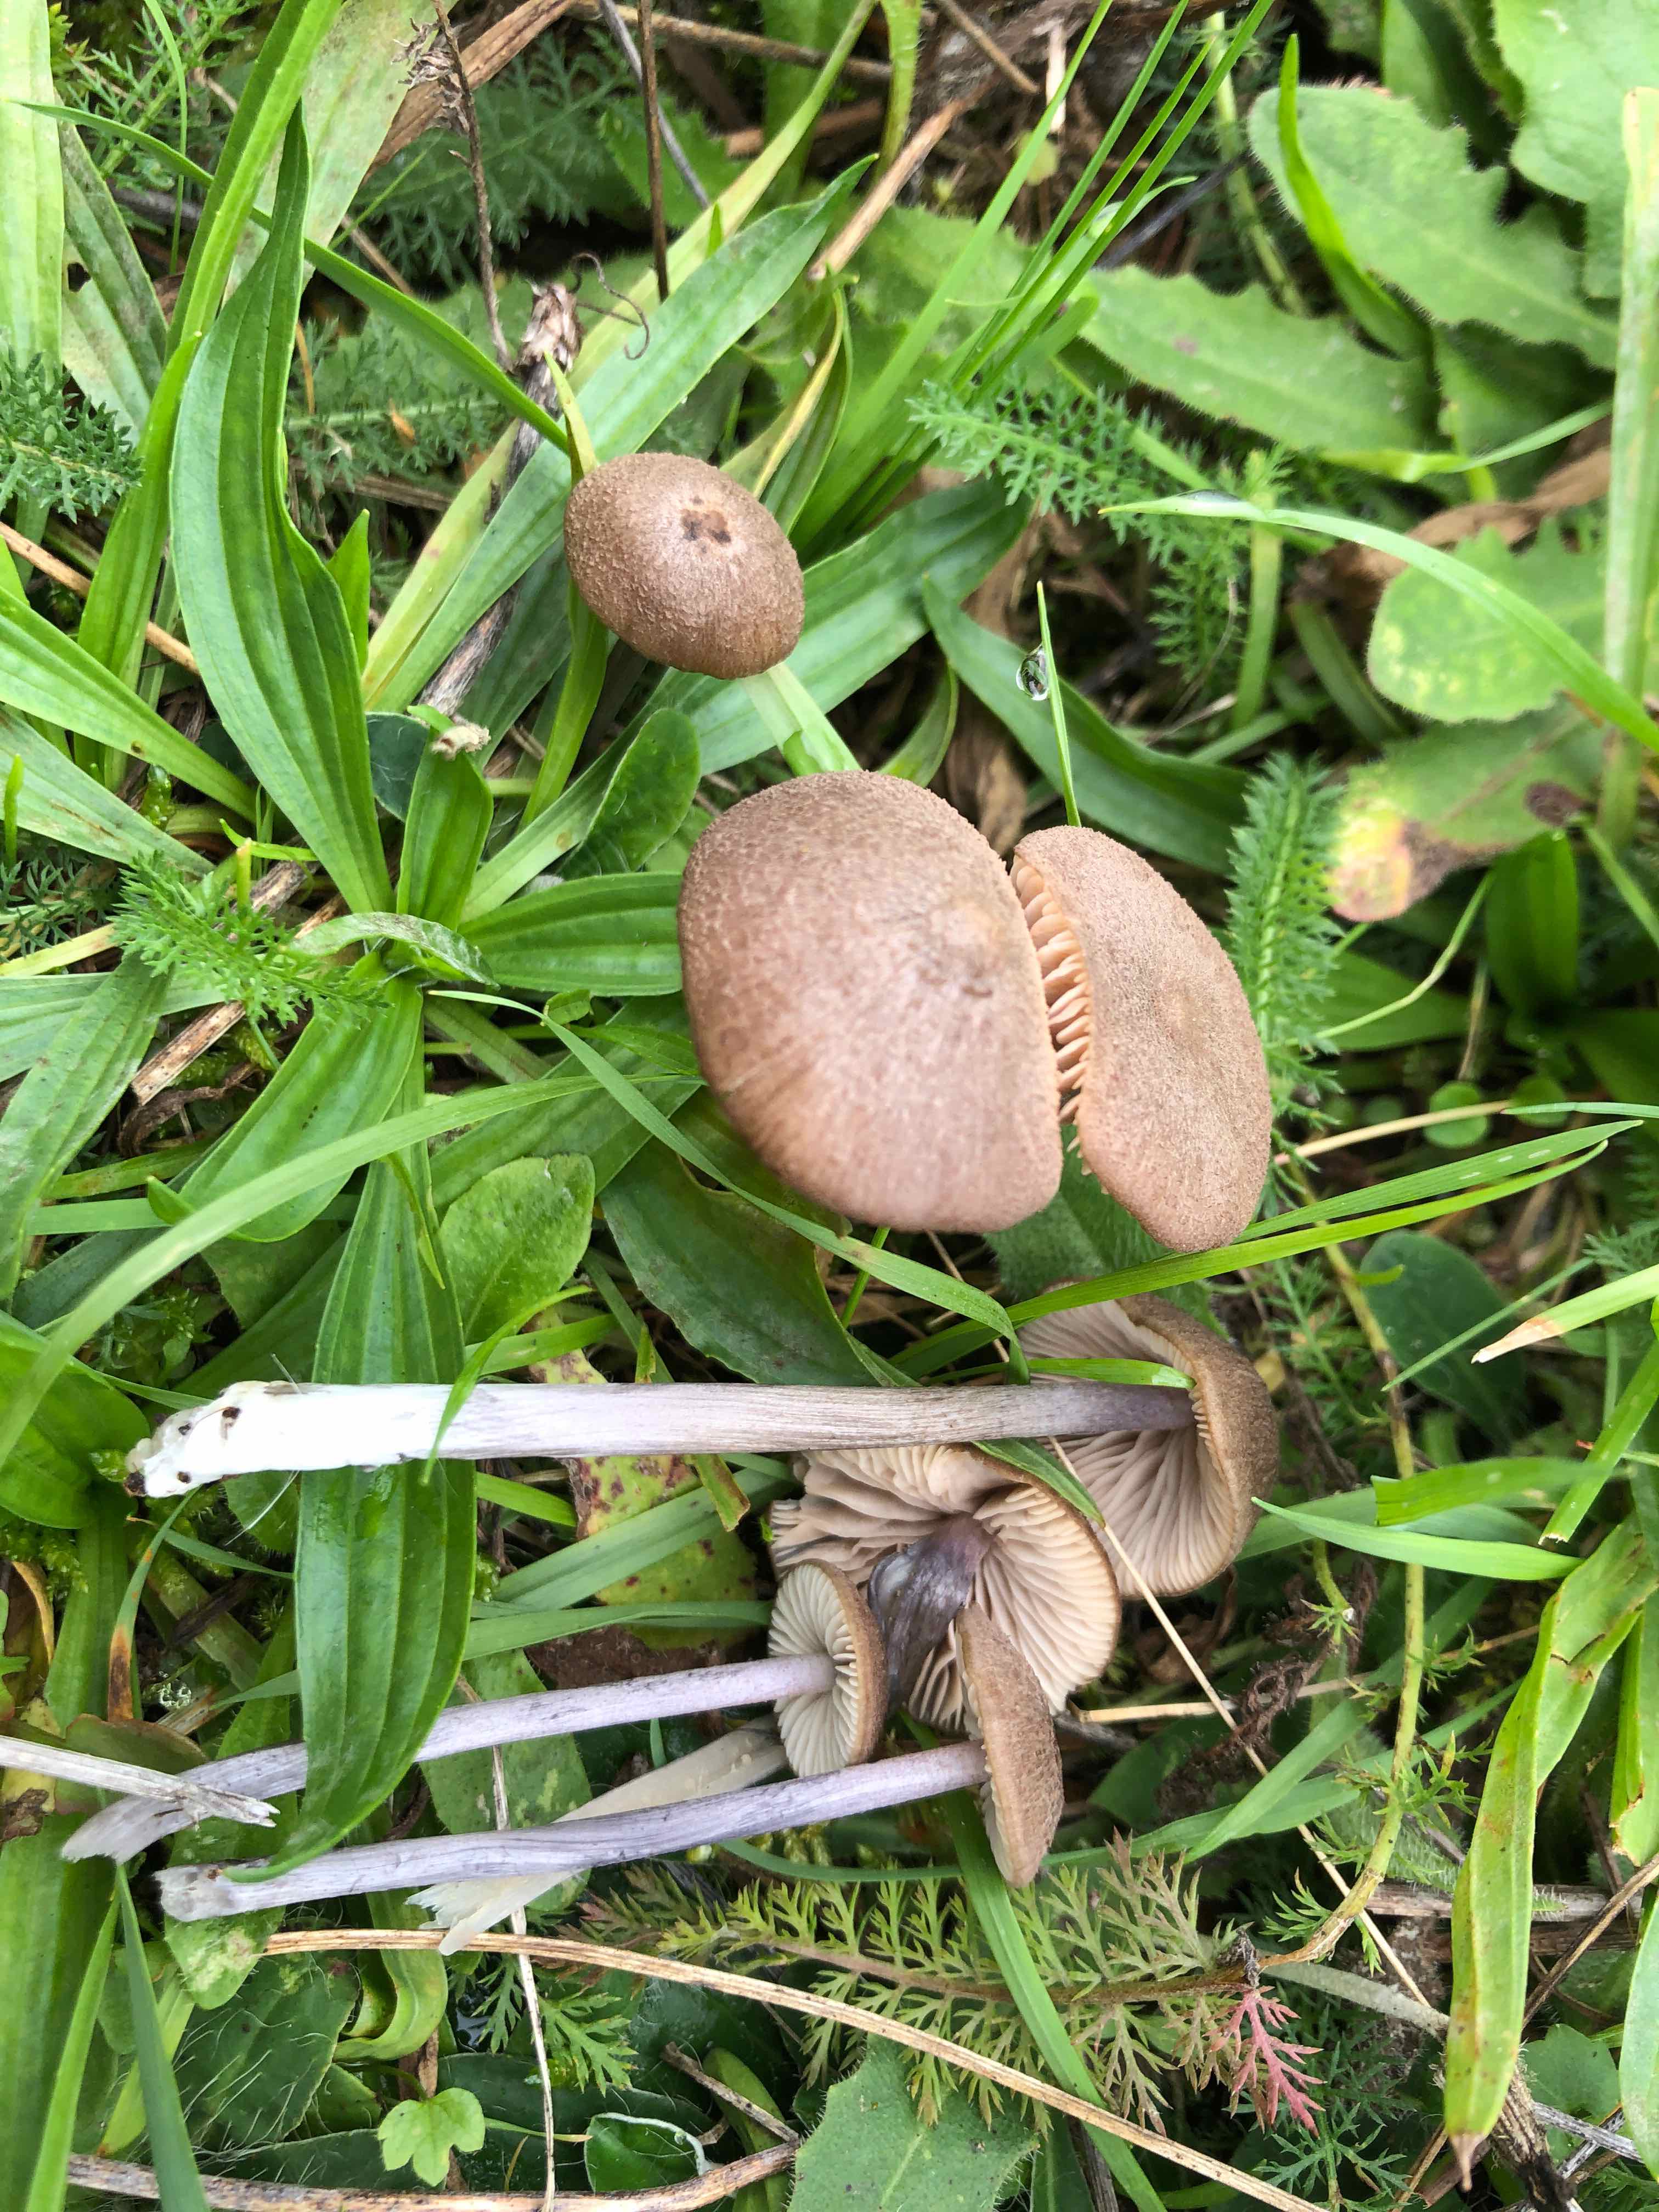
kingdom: Fungi
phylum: Basidiomycota
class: Agaricomycetes
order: Agaricales
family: Entolomataceae
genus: Entoloma
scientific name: Entoloma griseocyaneum
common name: gråblå rødblad
